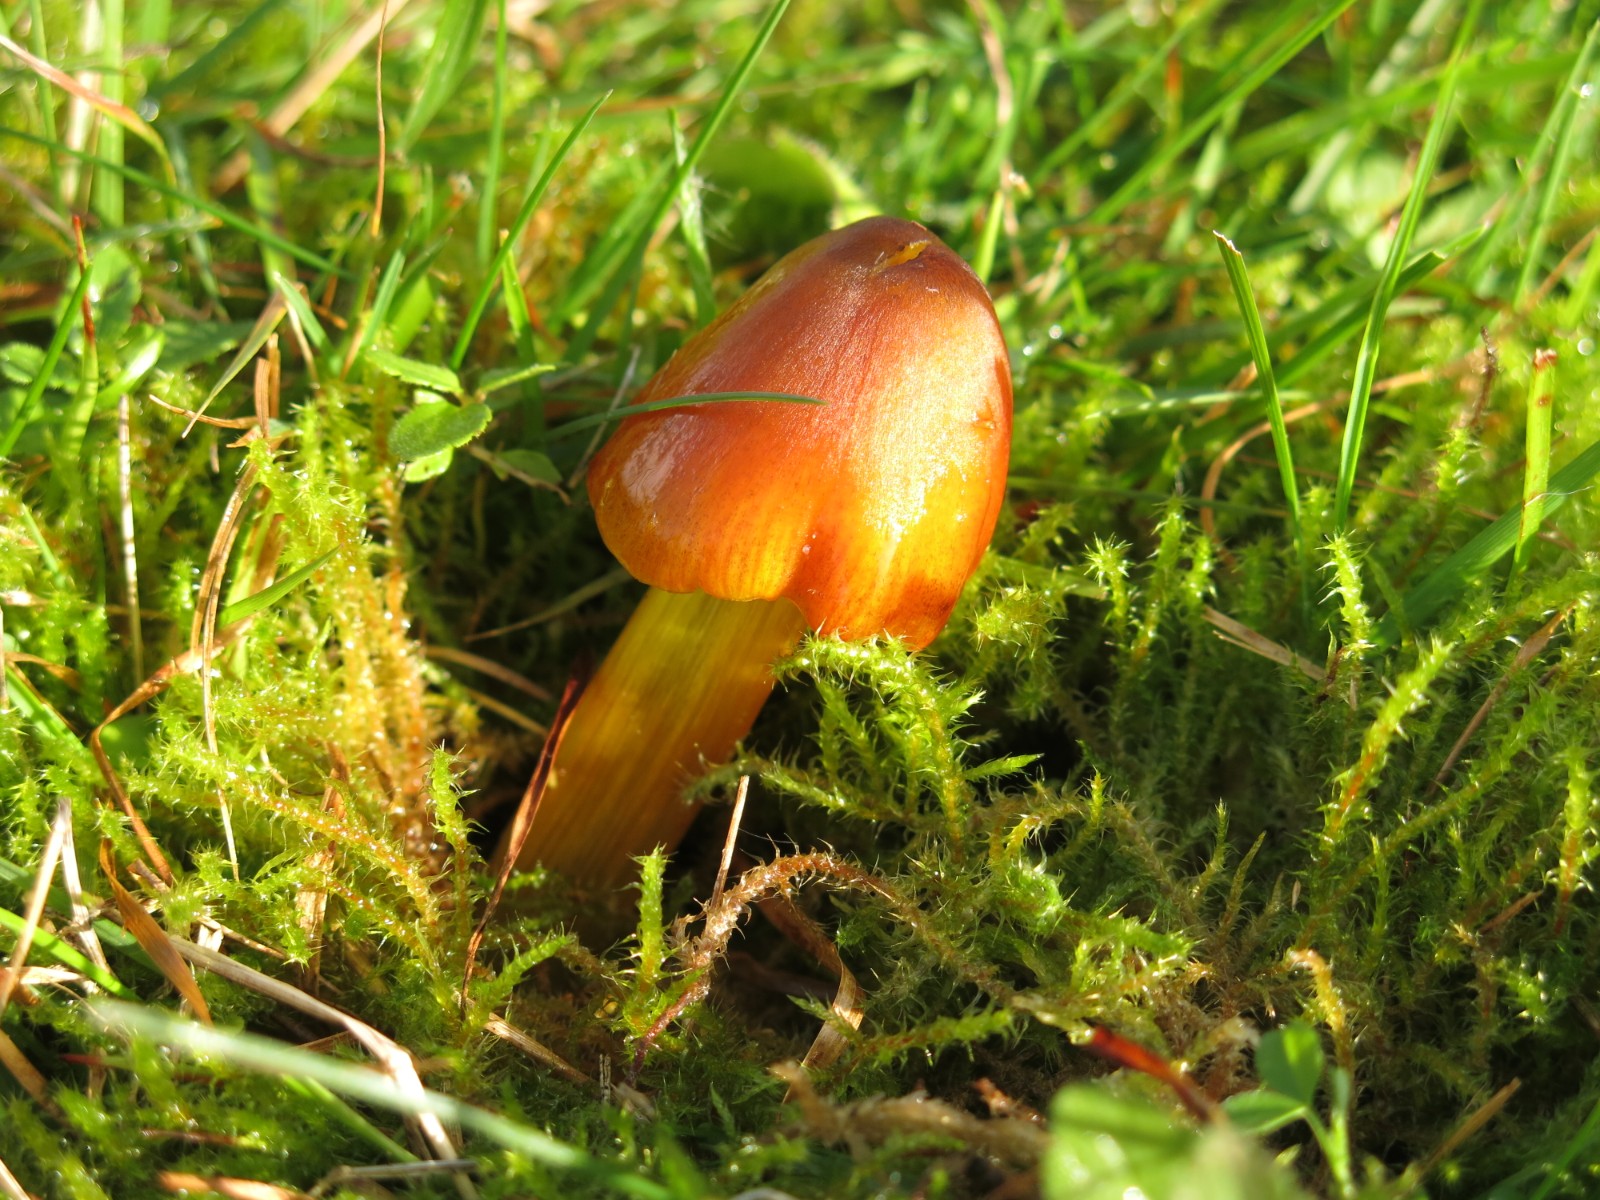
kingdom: Fungi
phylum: Basidiomycota
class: Agaricomycetes
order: Agaricales
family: Hygrophoraceae
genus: Hygrocybe
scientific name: Hygrocybe conica
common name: kegle-vokshat
